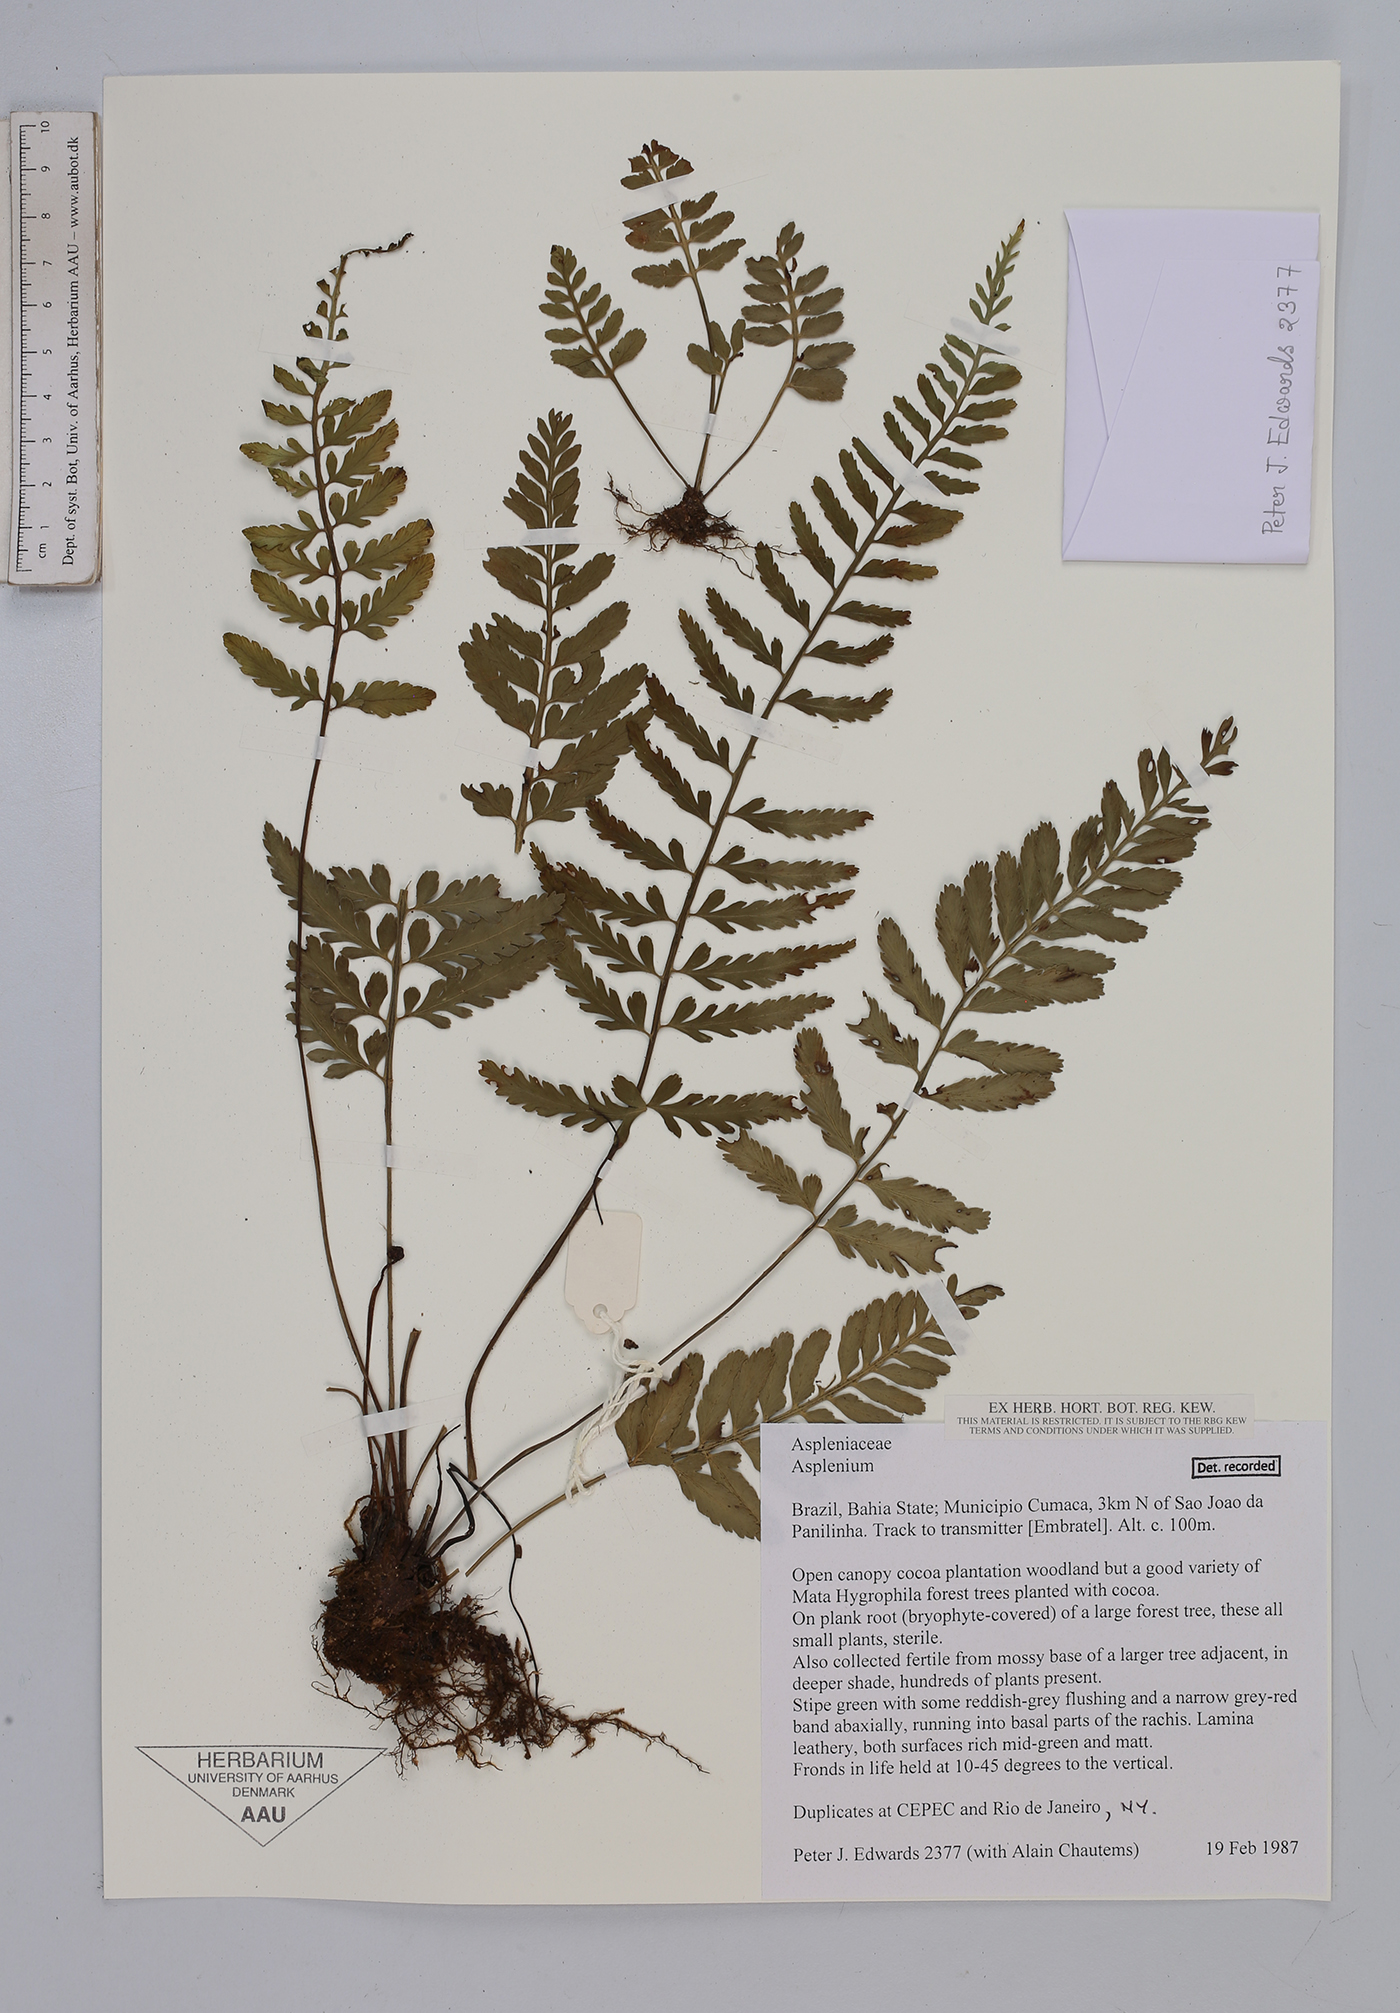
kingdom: Plantae
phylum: Tracheophyta
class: Polypodiopsida
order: Polypodiales
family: Aspleniaceae
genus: Asplenium
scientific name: Asplenium
